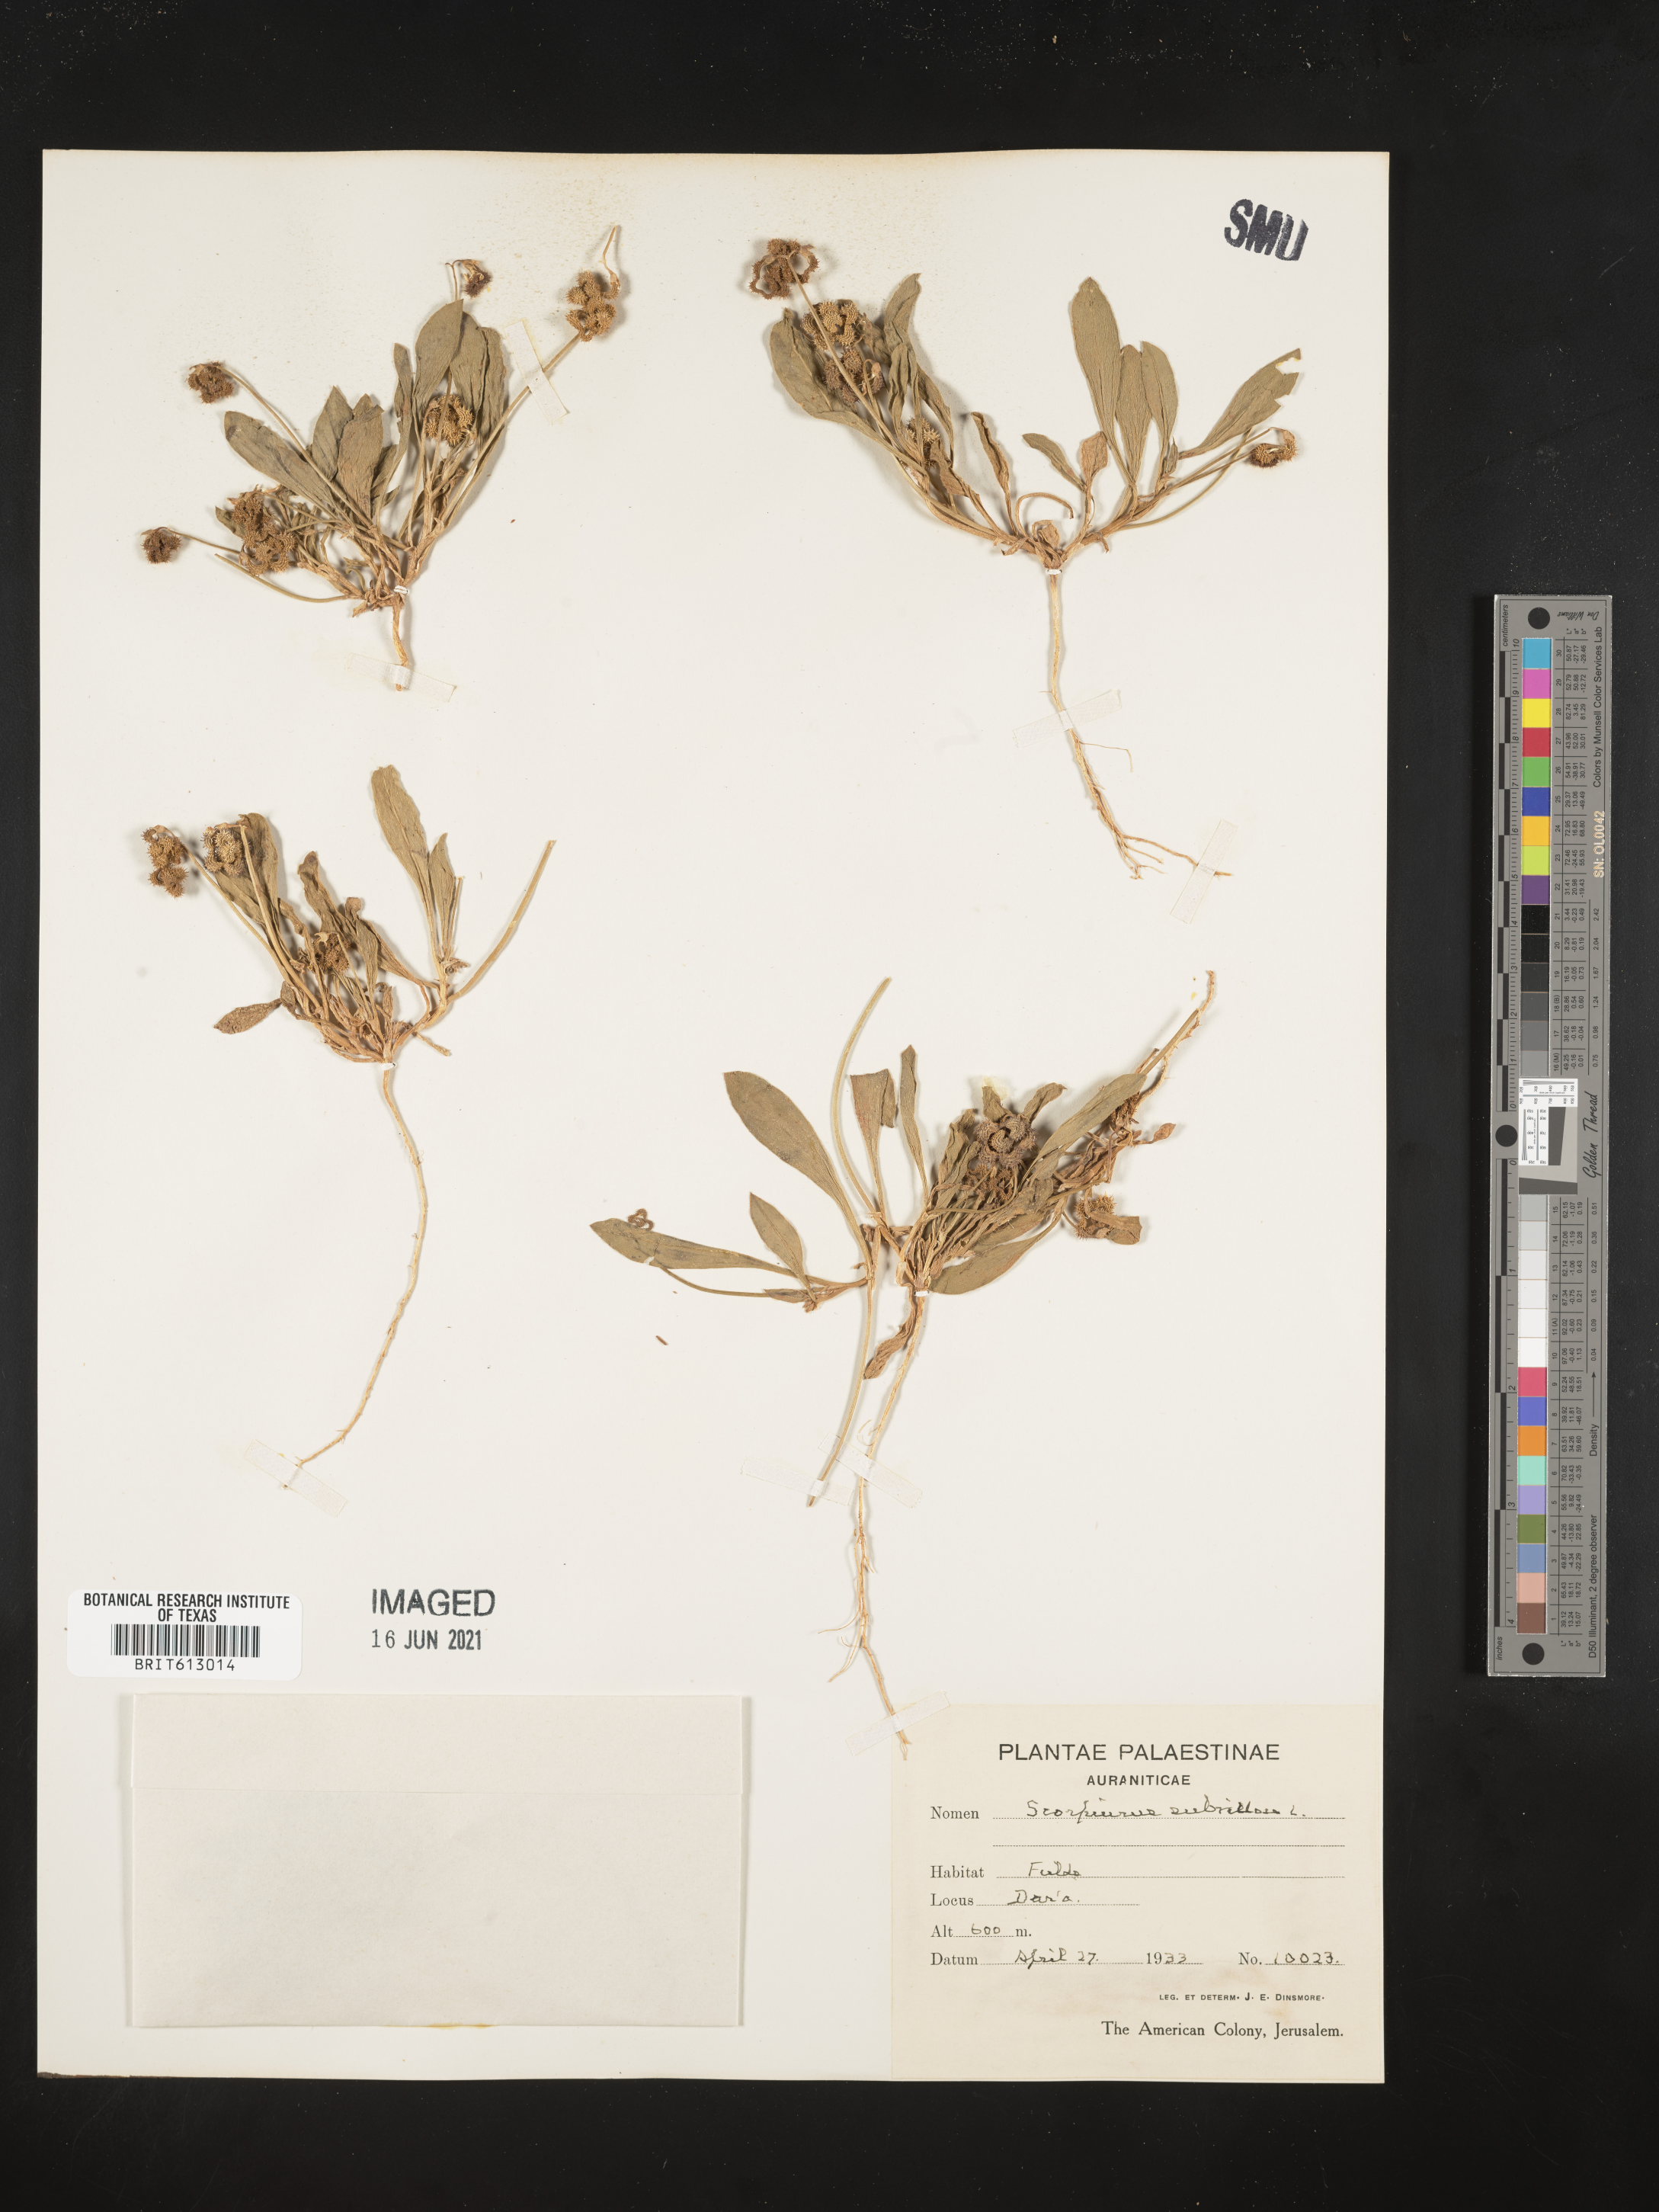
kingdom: Plantae
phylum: Tracheophyta
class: Magnoliopsida
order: Fabales
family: Fabaceae
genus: Scorpiurus
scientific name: Scorpiurus muricatus
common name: Caterpillar-plant
